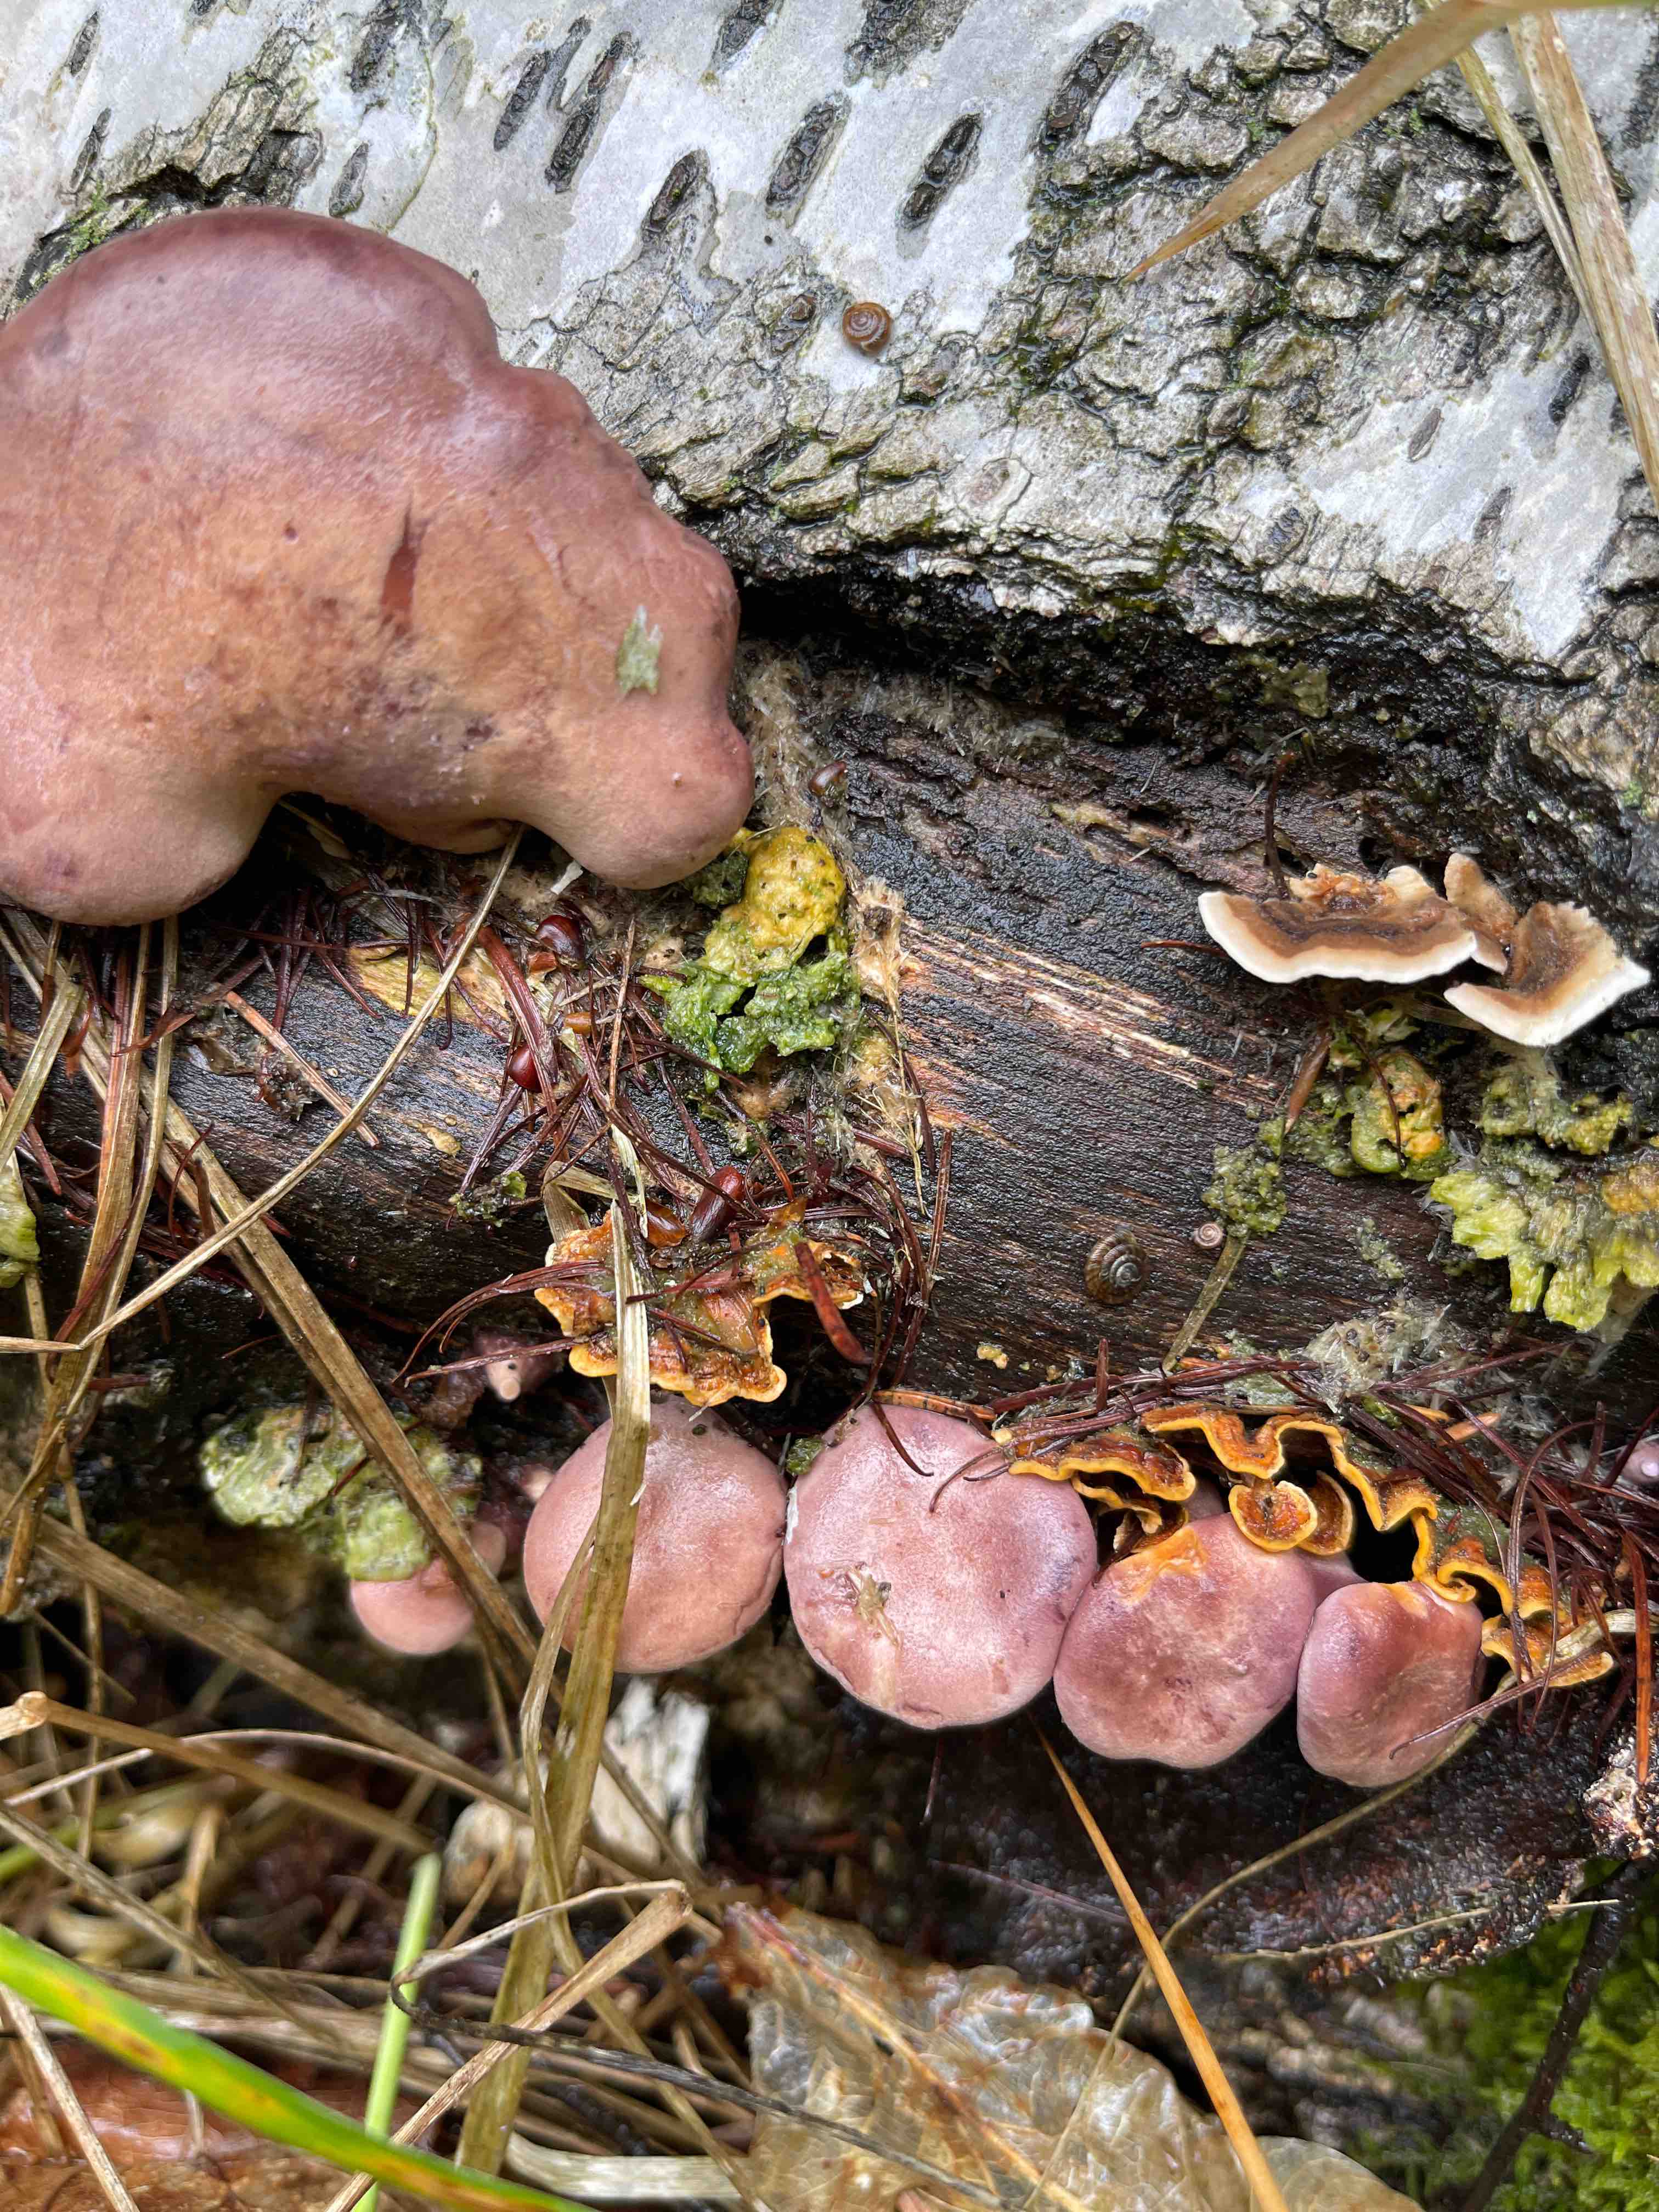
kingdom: Fungi
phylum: Basidiomycota
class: Agaricomycetes
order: Polyporales
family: Panaceae
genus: Panus
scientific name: Panus conchatus
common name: filtstokket læderhat
